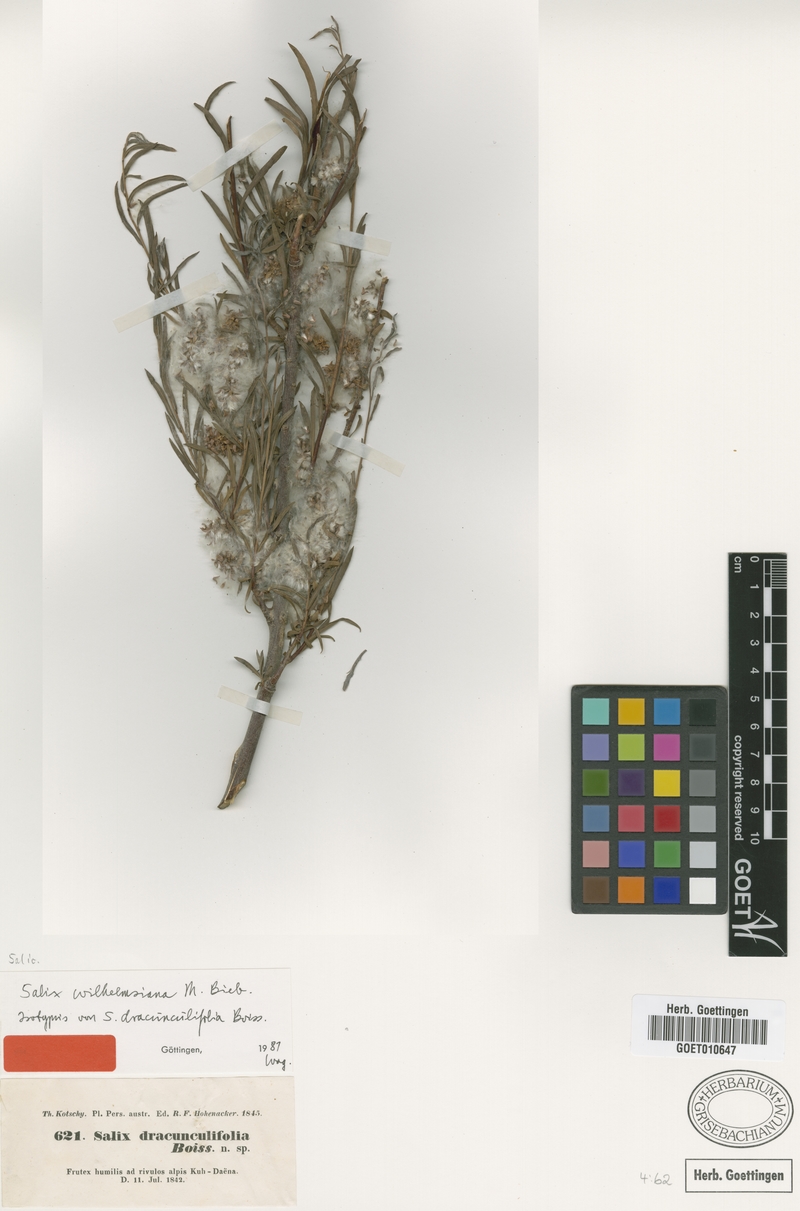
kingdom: Plantae
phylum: Tracheophyta
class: Magnoliopsida
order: Malpighiales
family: Salicaceae
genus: Salix
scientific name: Salix wilhelmsiana
